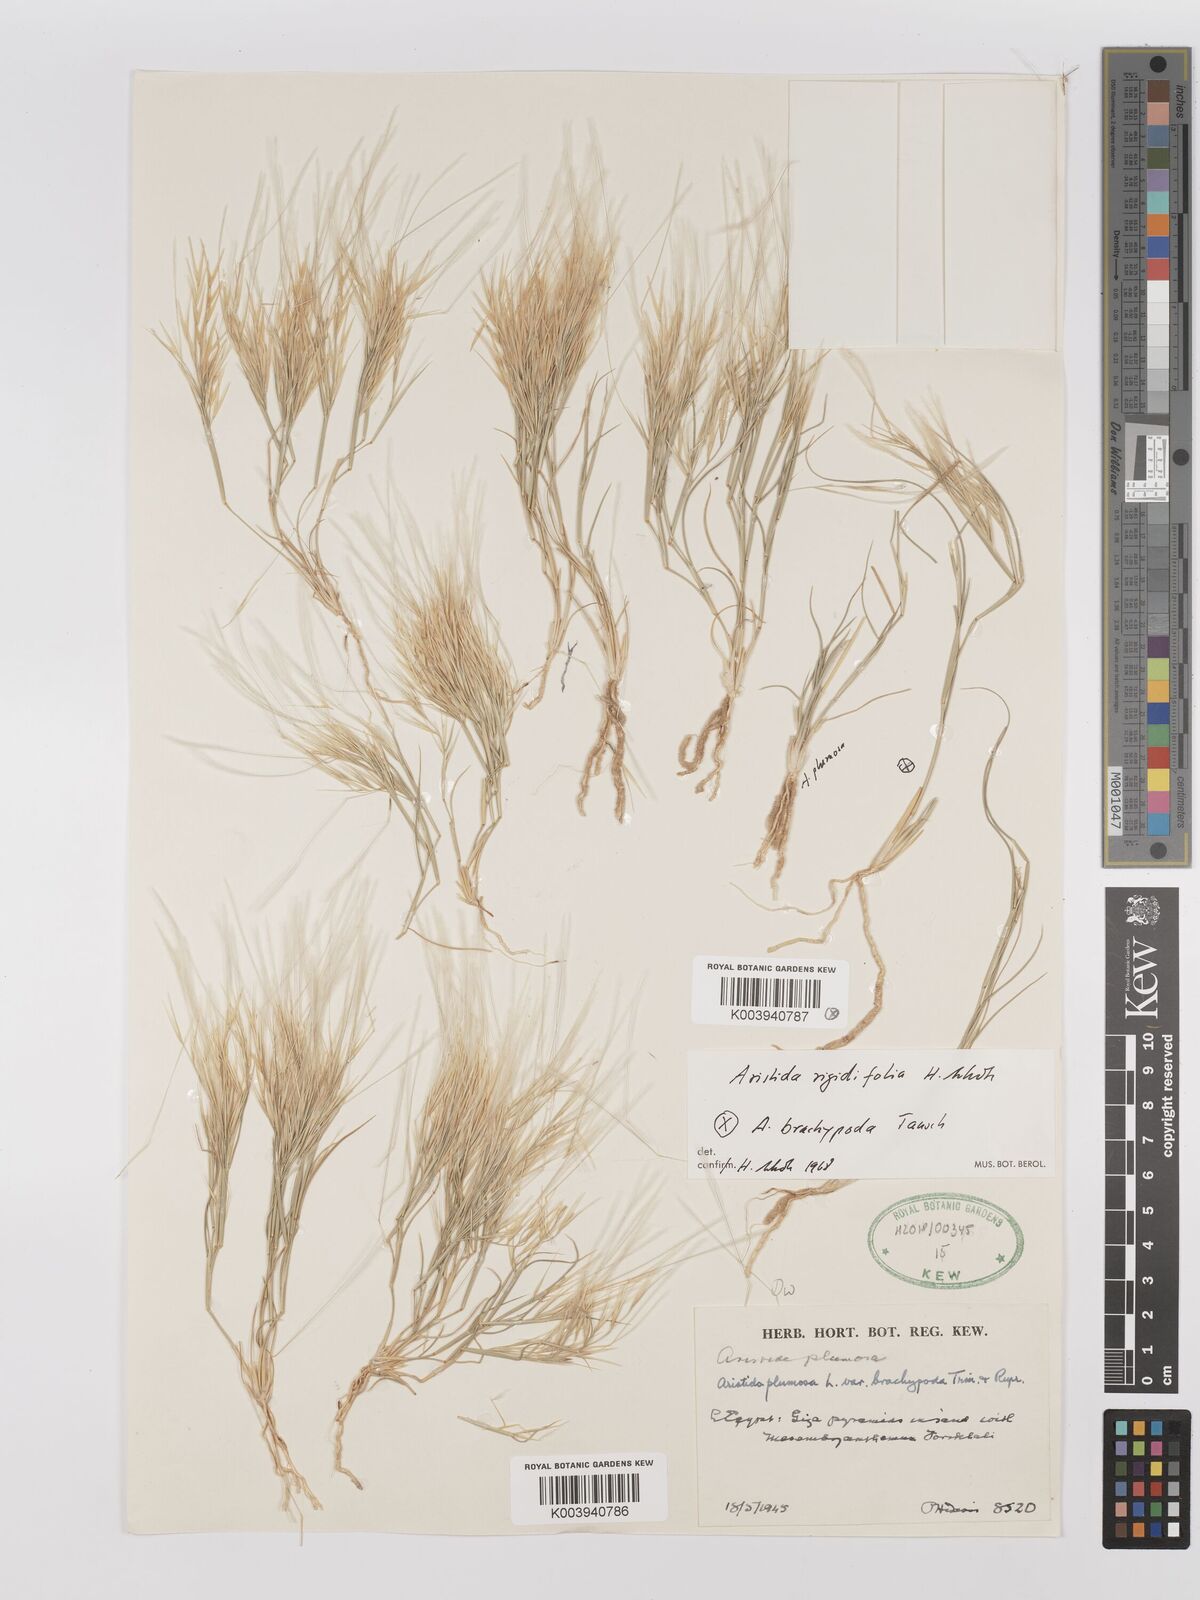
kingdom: Plantae
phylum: Tracheophyta
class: Liliopsida
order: Poales
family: Poaceae
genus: Stipagrostis
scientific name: Stipagrostis rigidifolia
